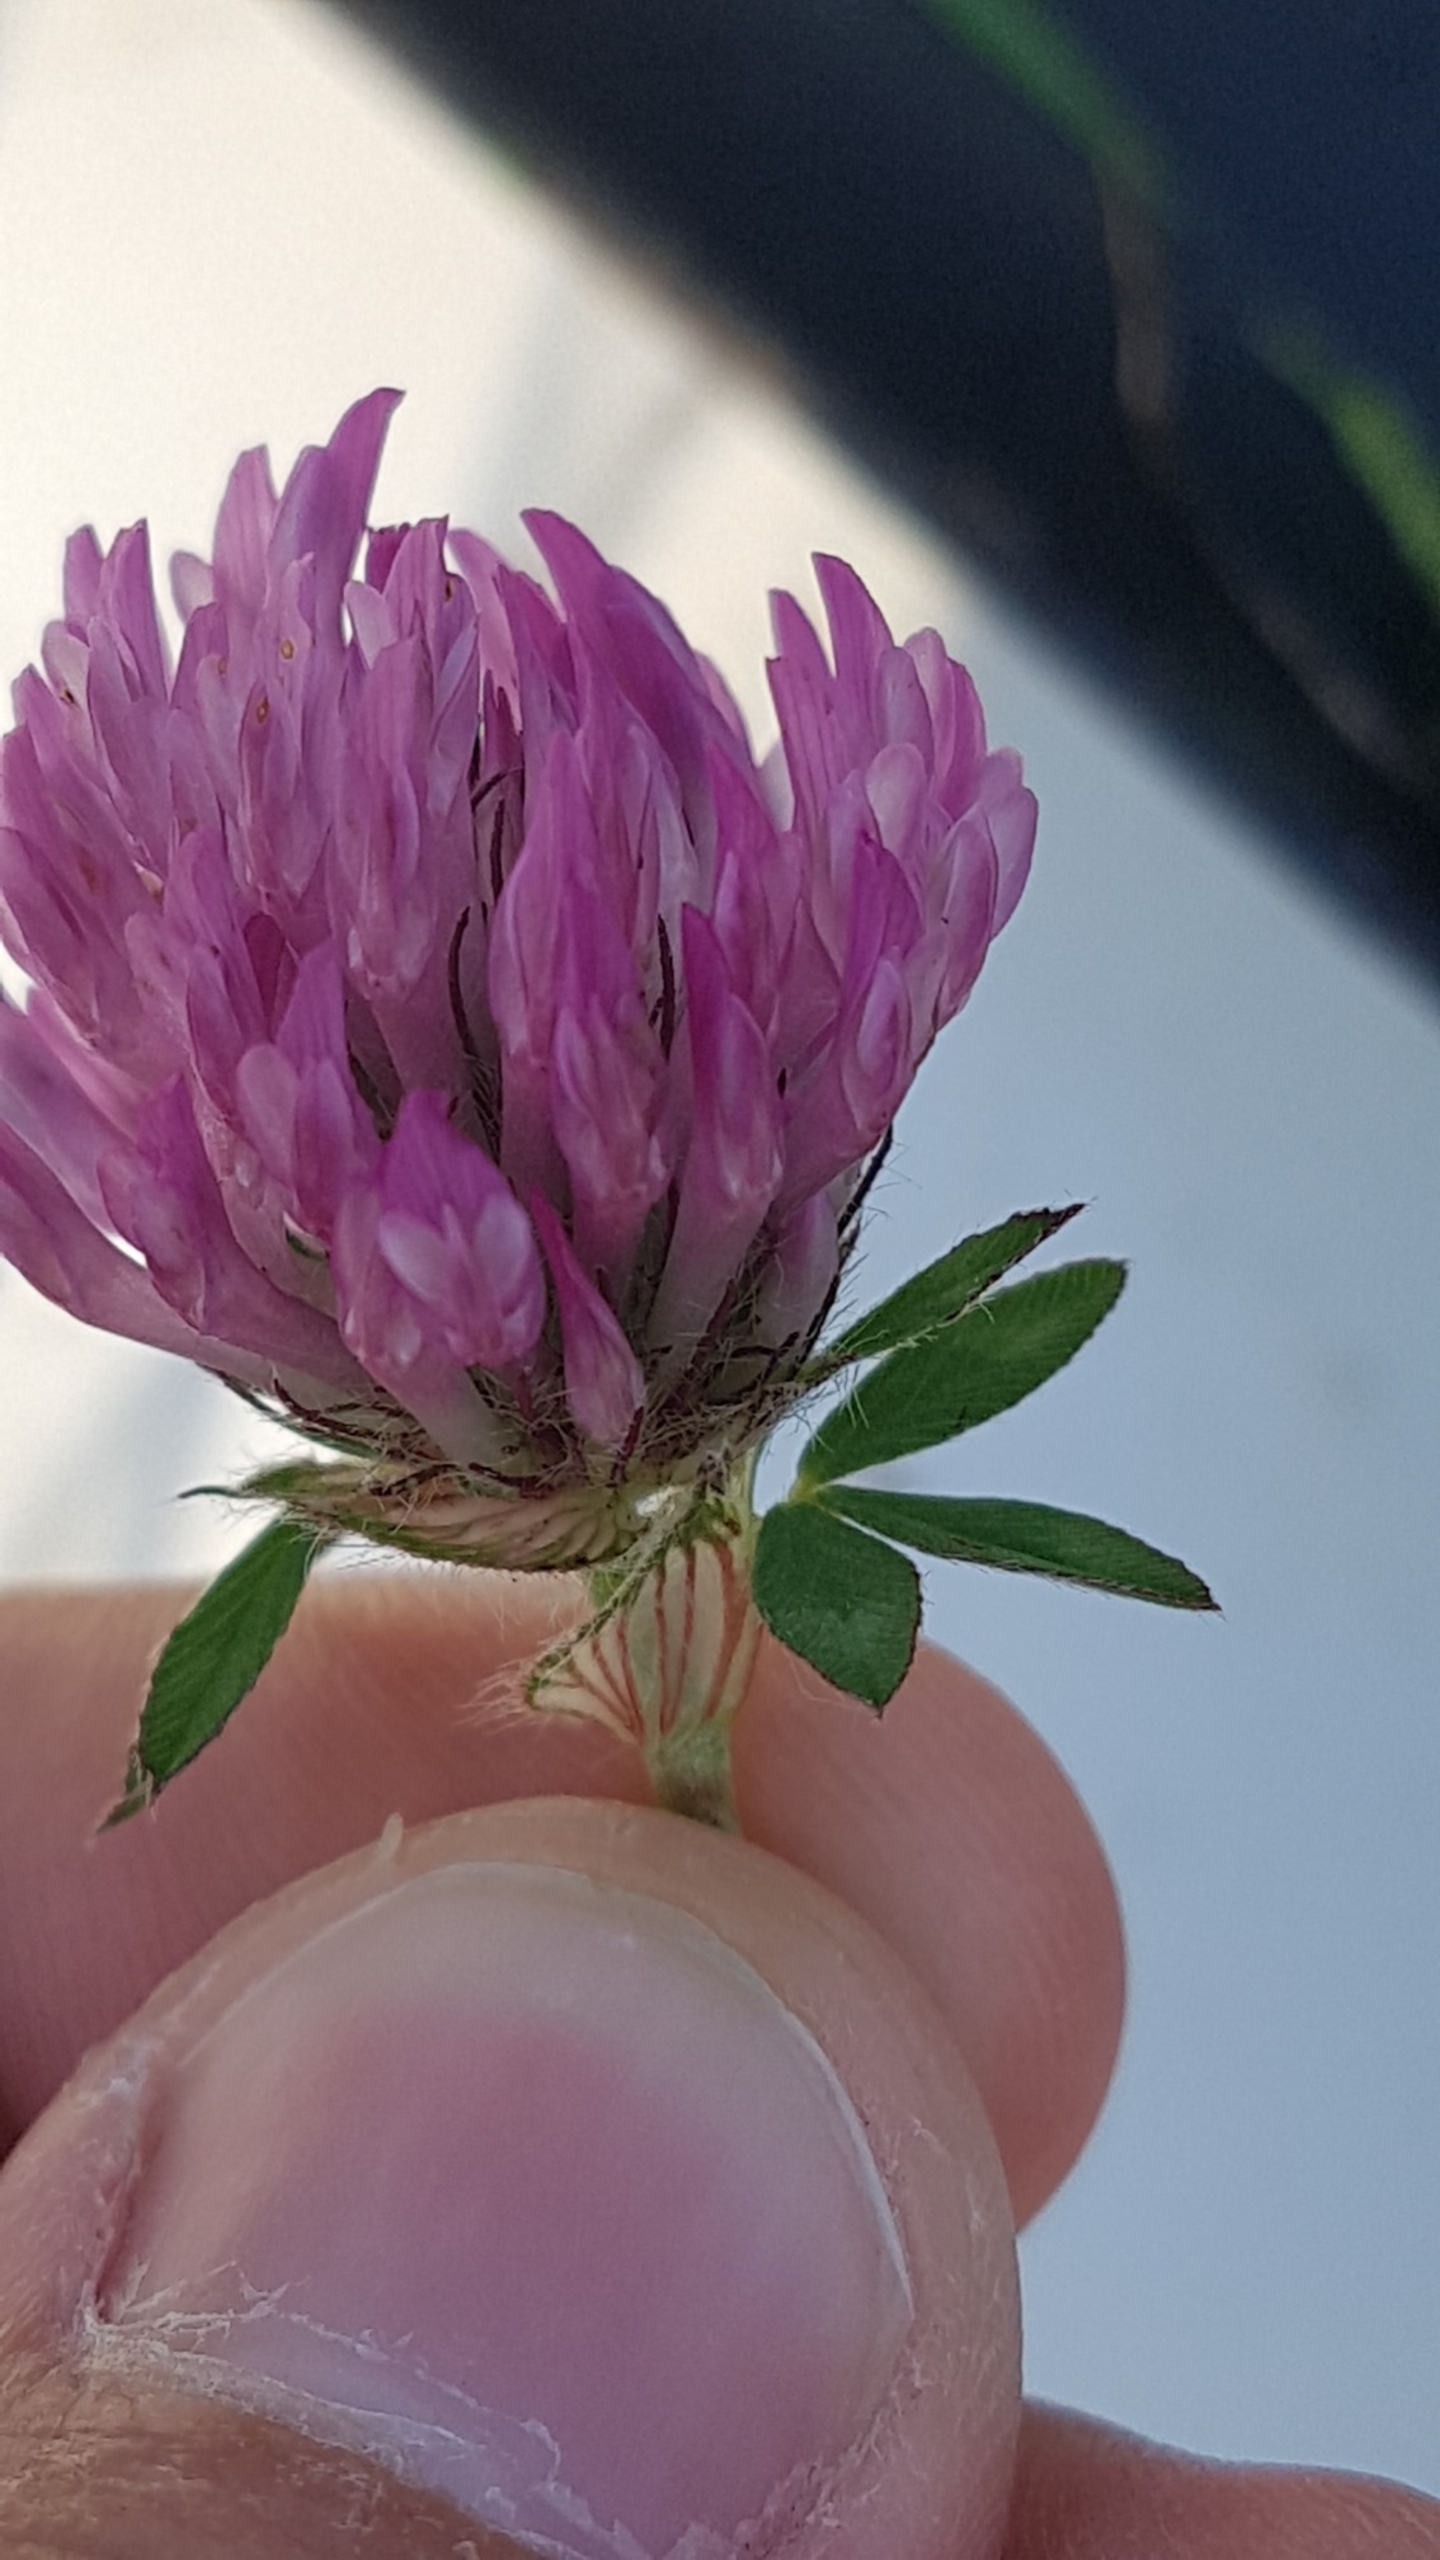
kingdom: Plantae
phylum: Tracheophyta
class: Magnoliopsida
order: Fabales
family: Fabaceae
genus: Trifolium
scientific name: Trifolium pratense
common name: Rød-kløver
